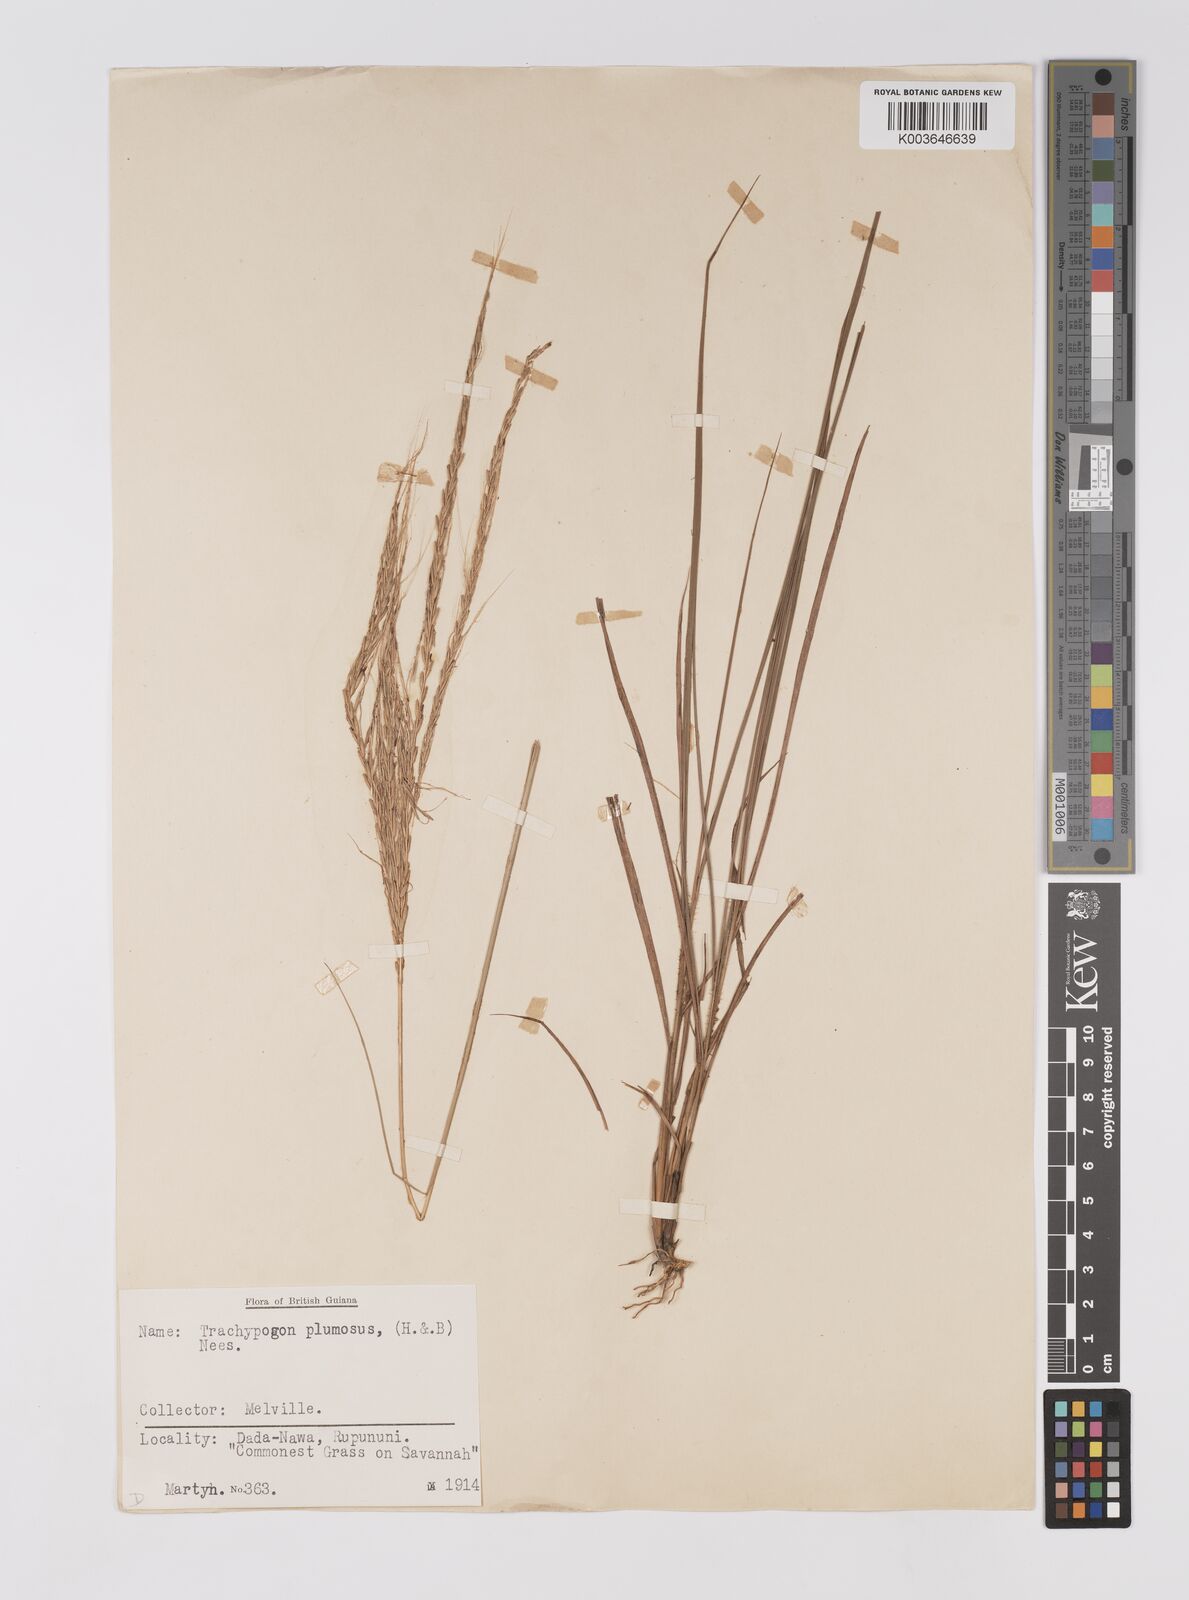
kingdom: Plantae
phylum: Tracheophyta
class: Liliopsida
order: Poales
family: Poaceae
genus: Trachypogon
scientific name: Trachypogon spicatus
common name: Crinkle-awn
